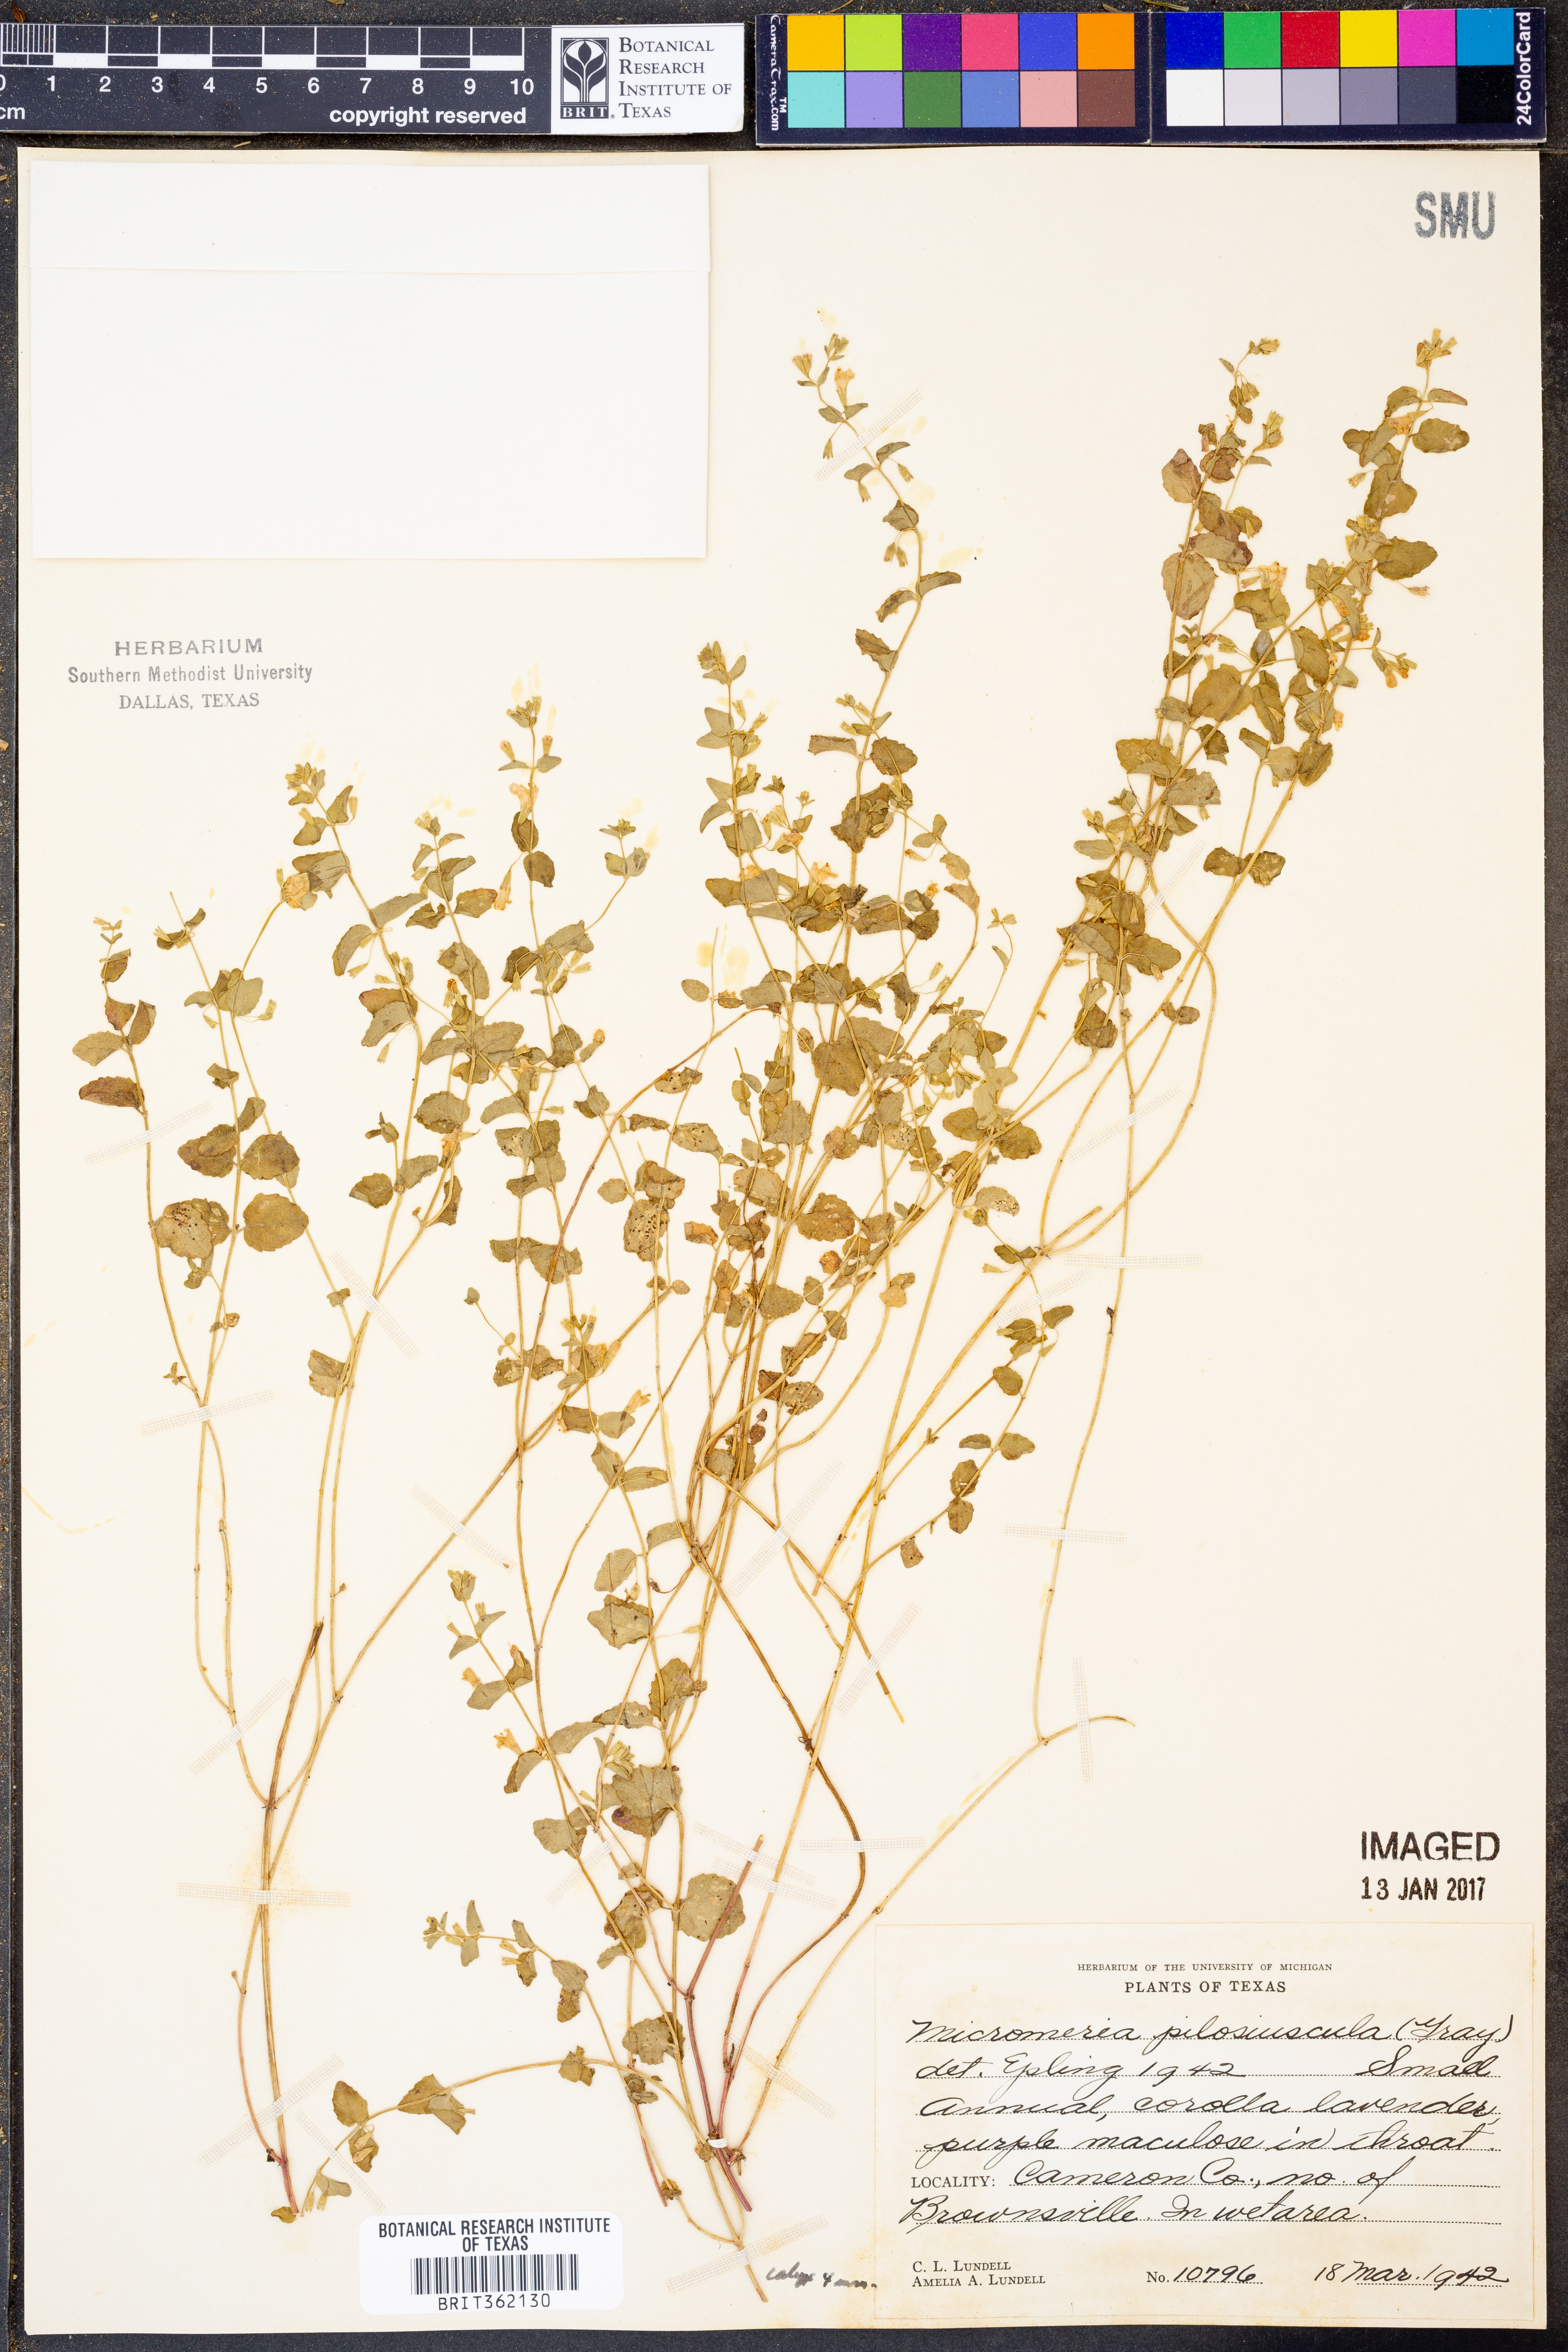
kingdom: Plantae
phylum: Tracheophyta
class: Magnoliopsida
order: Lamiales
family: Lamiaceae
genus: Clinopodium
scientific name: Clinopodium brownei
